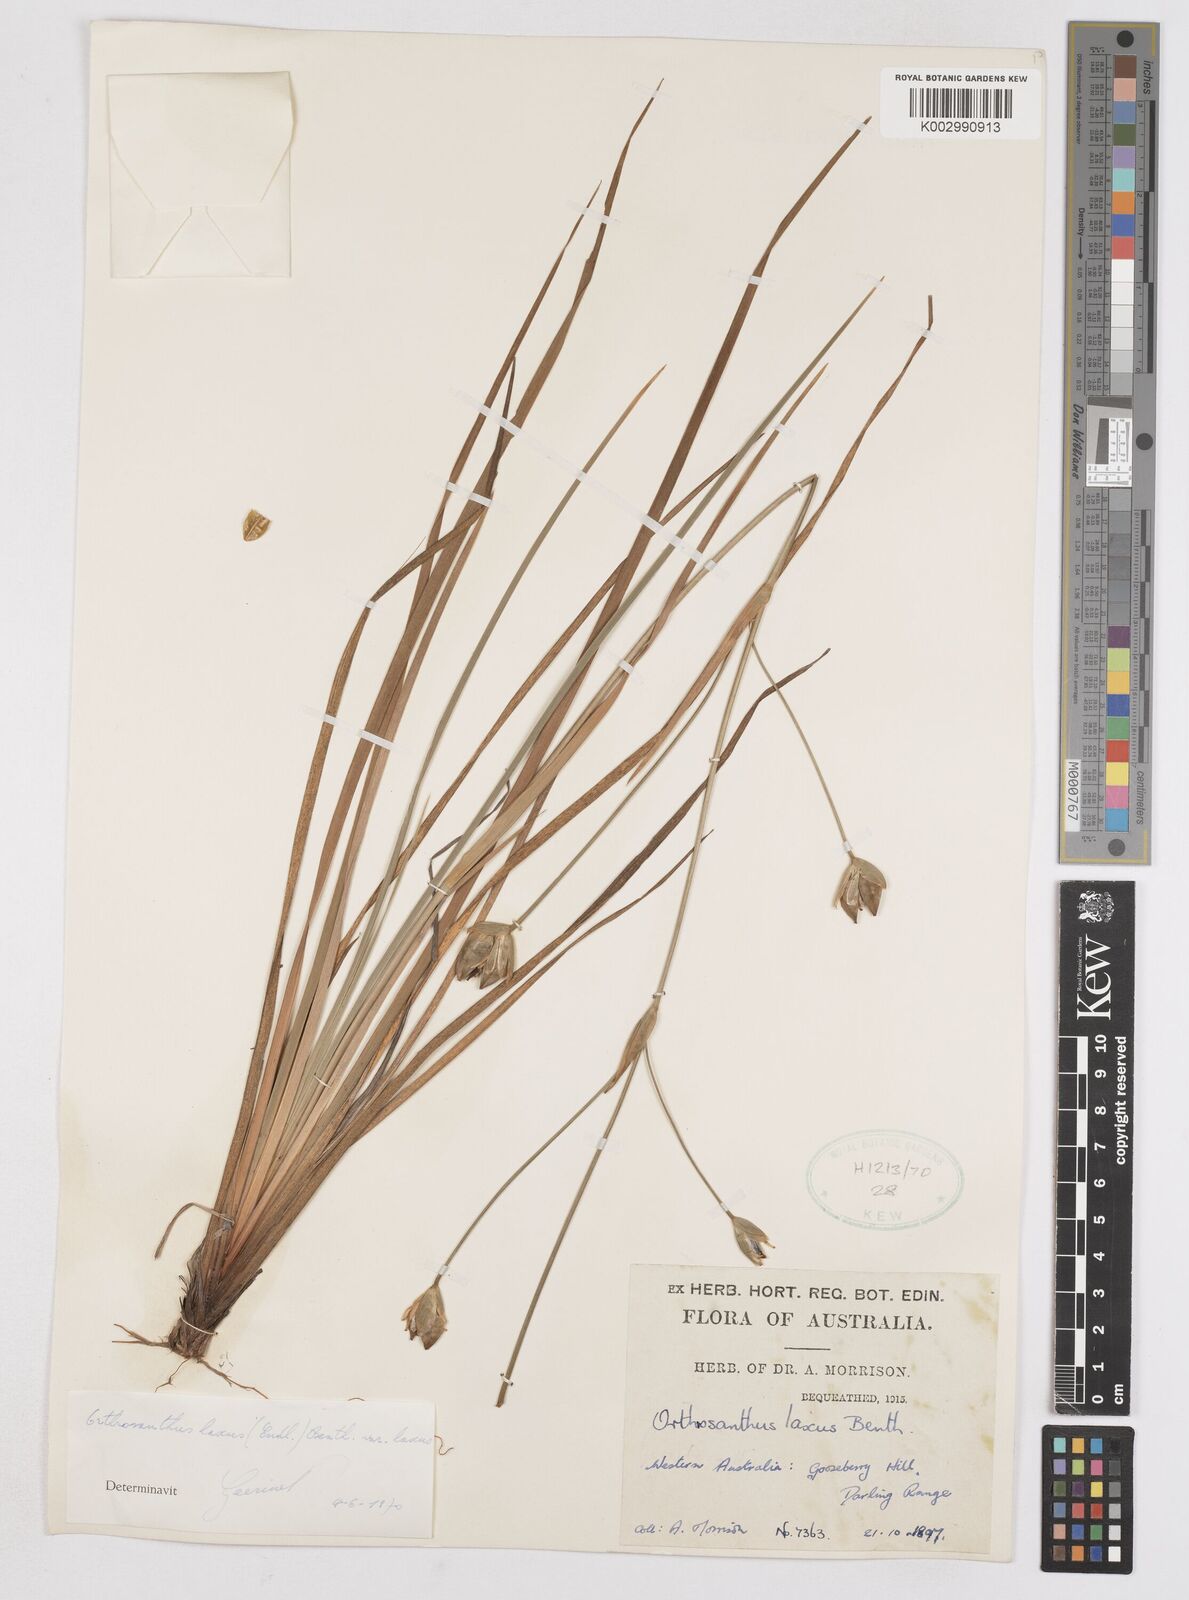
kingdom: Plantae
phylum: Tracheophyta
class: Liliopsida
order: Asparagales
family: Iridaceae
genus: Orthrosanthus
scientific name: Orthrosanthus laxus
